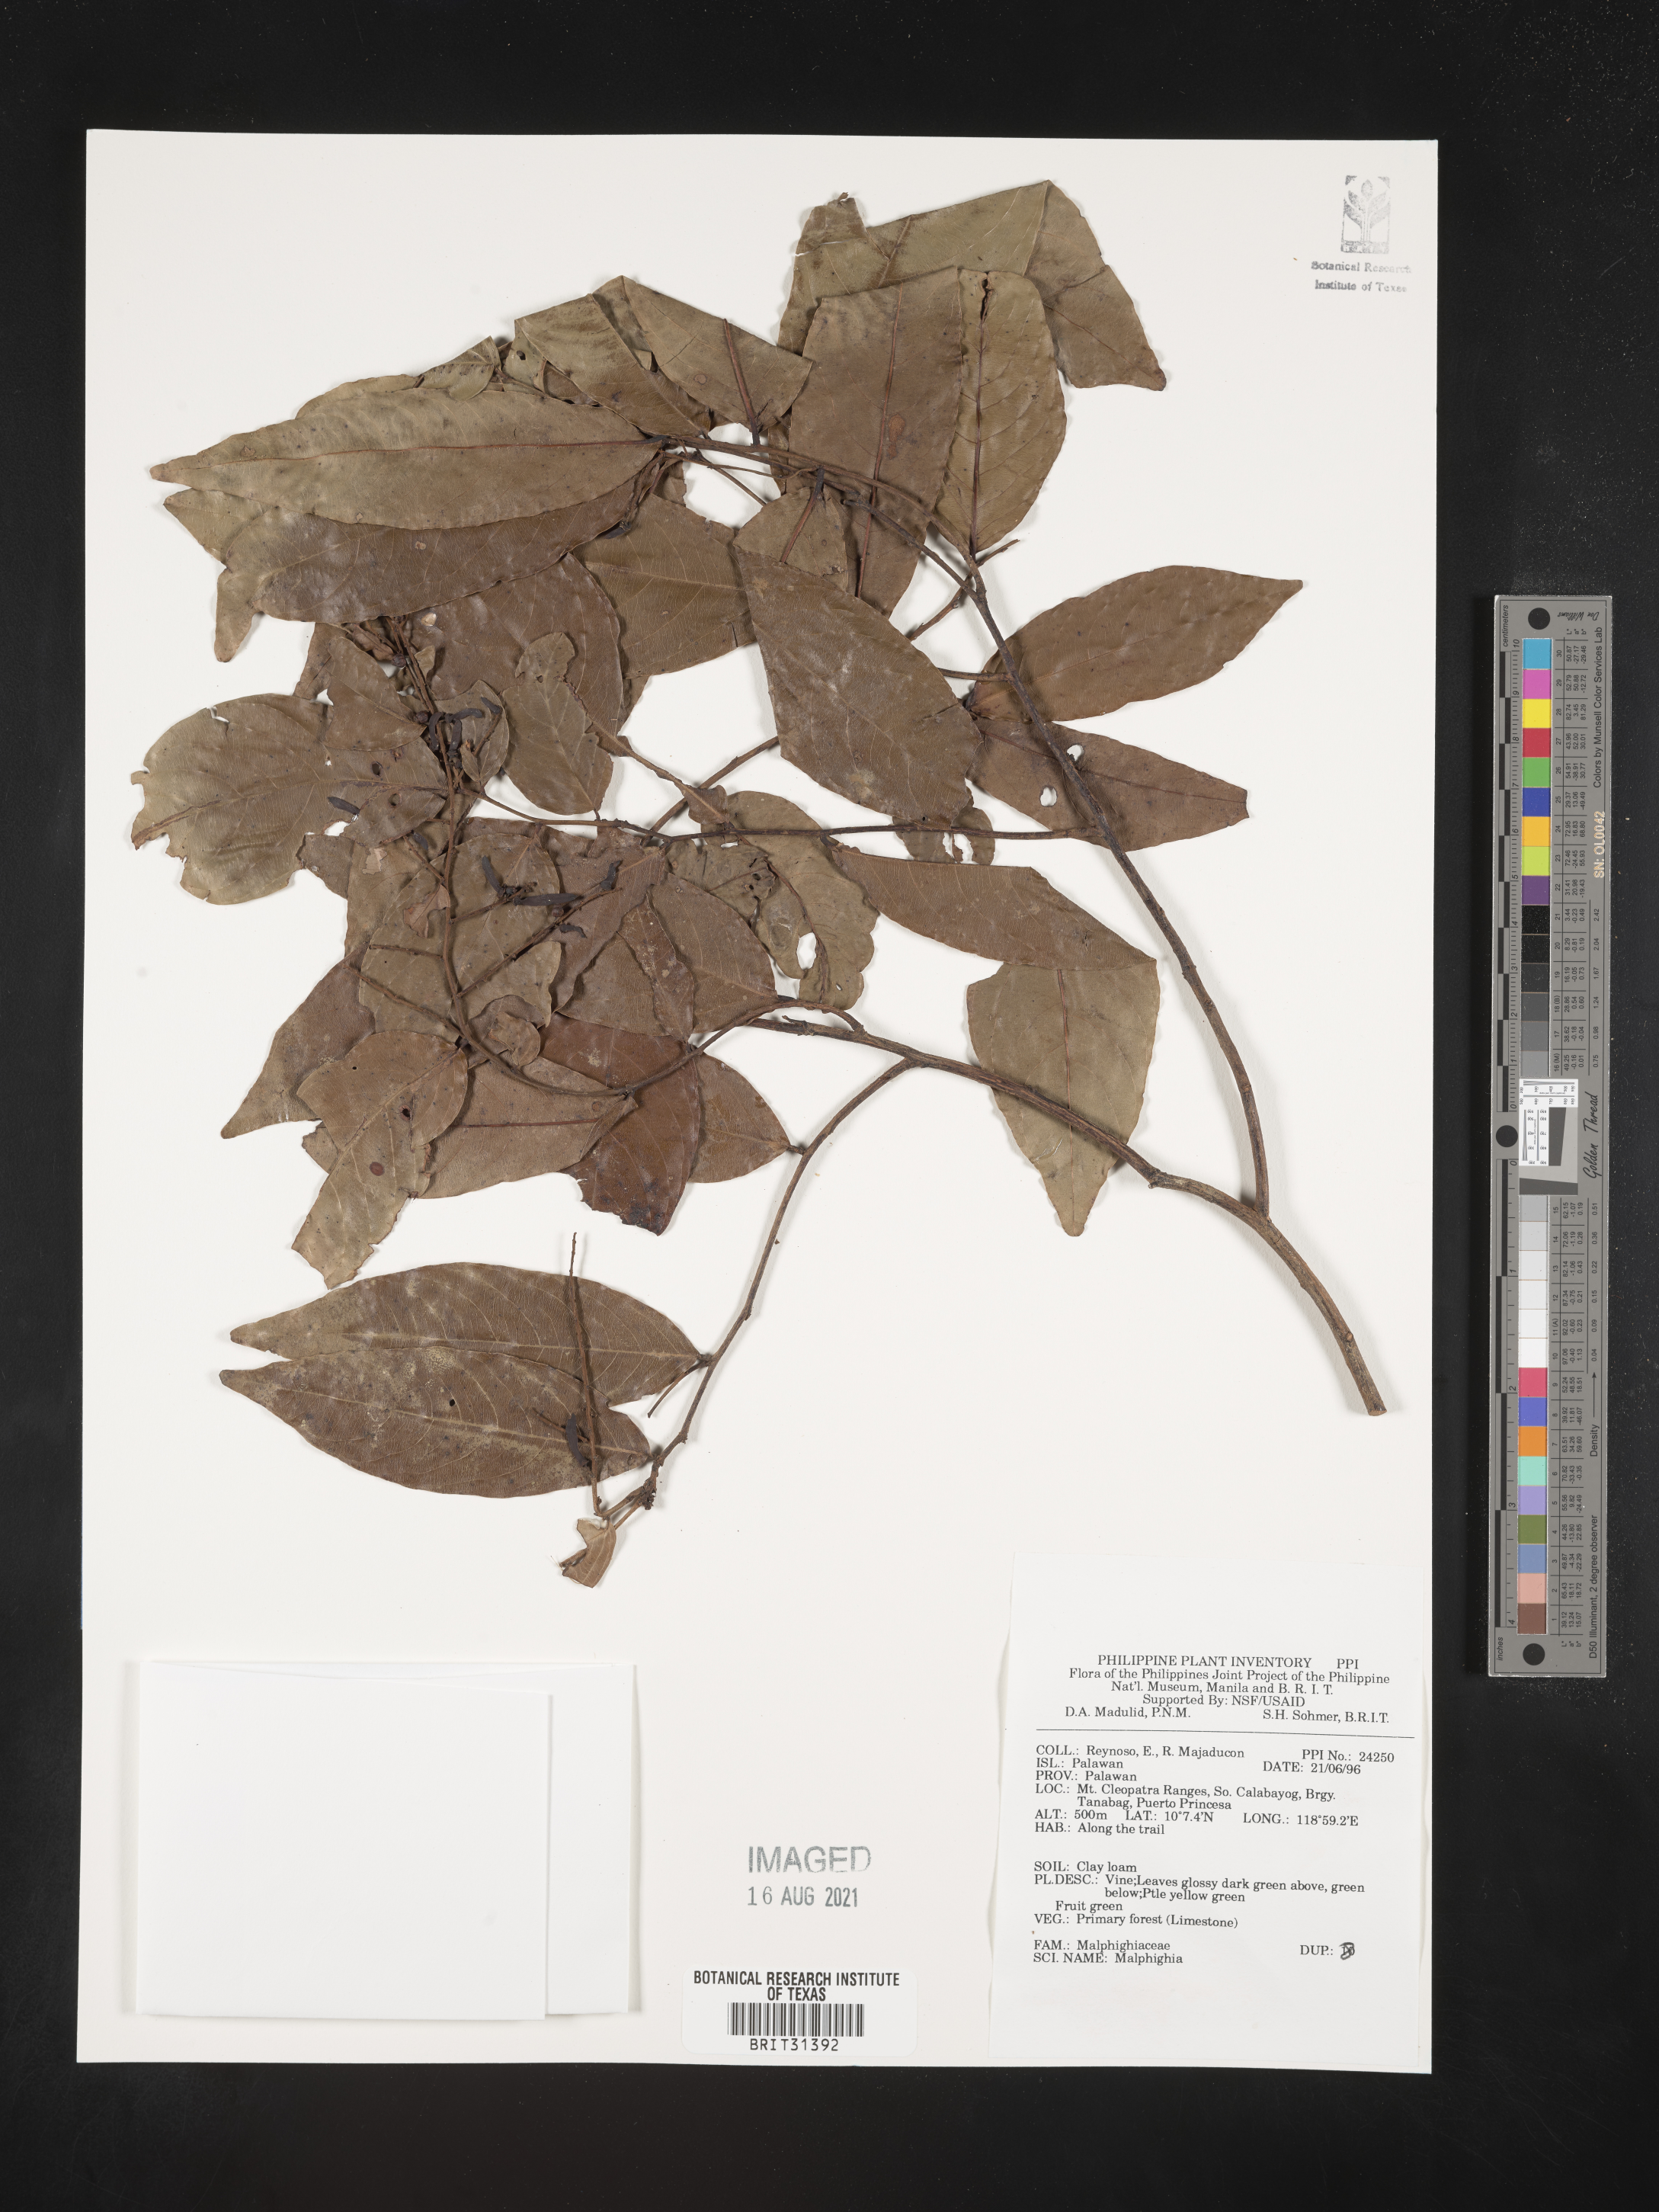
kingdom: Plantae
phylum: Tracheophyta
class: Magnoliopsida
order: Malpighiales
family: Malpighiaceae
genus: Malpighia
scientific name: Malpighia
